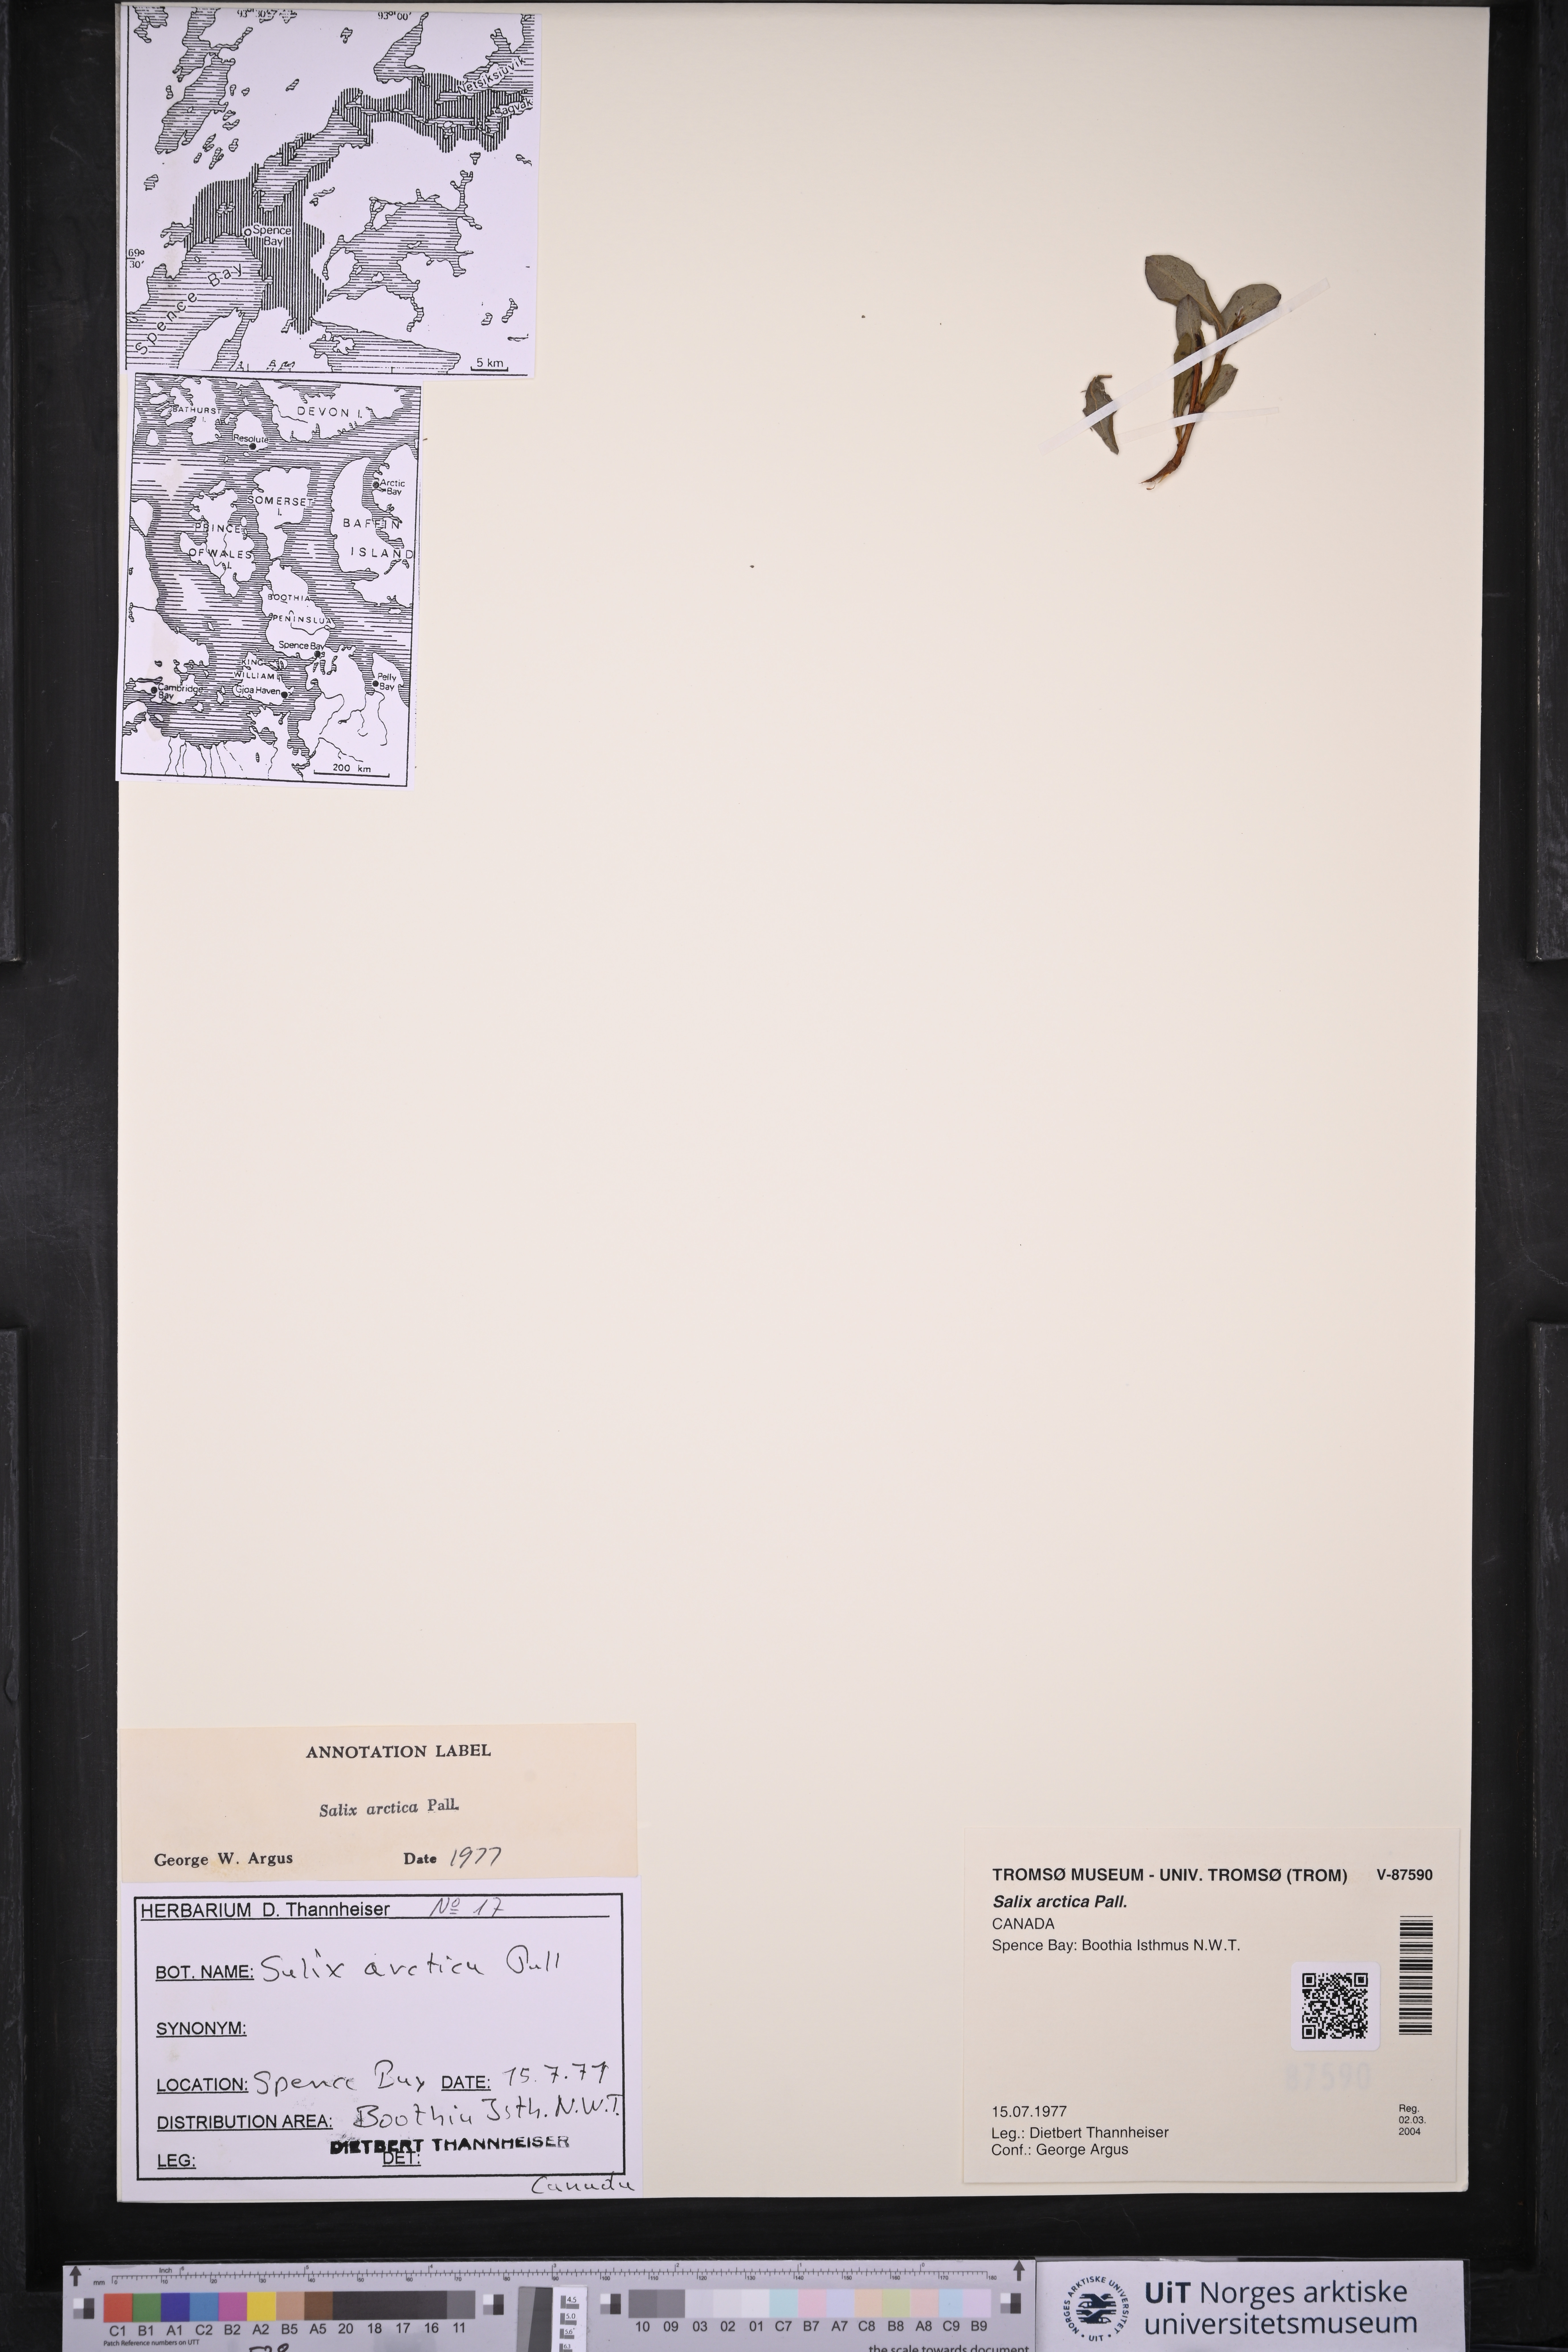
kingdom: Plantae
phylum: Tracheophyta
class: Magnoliopsida
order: Malpighiales
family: Salicaceae
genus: Salix
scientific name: Salix arctica
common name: Arctic willow
